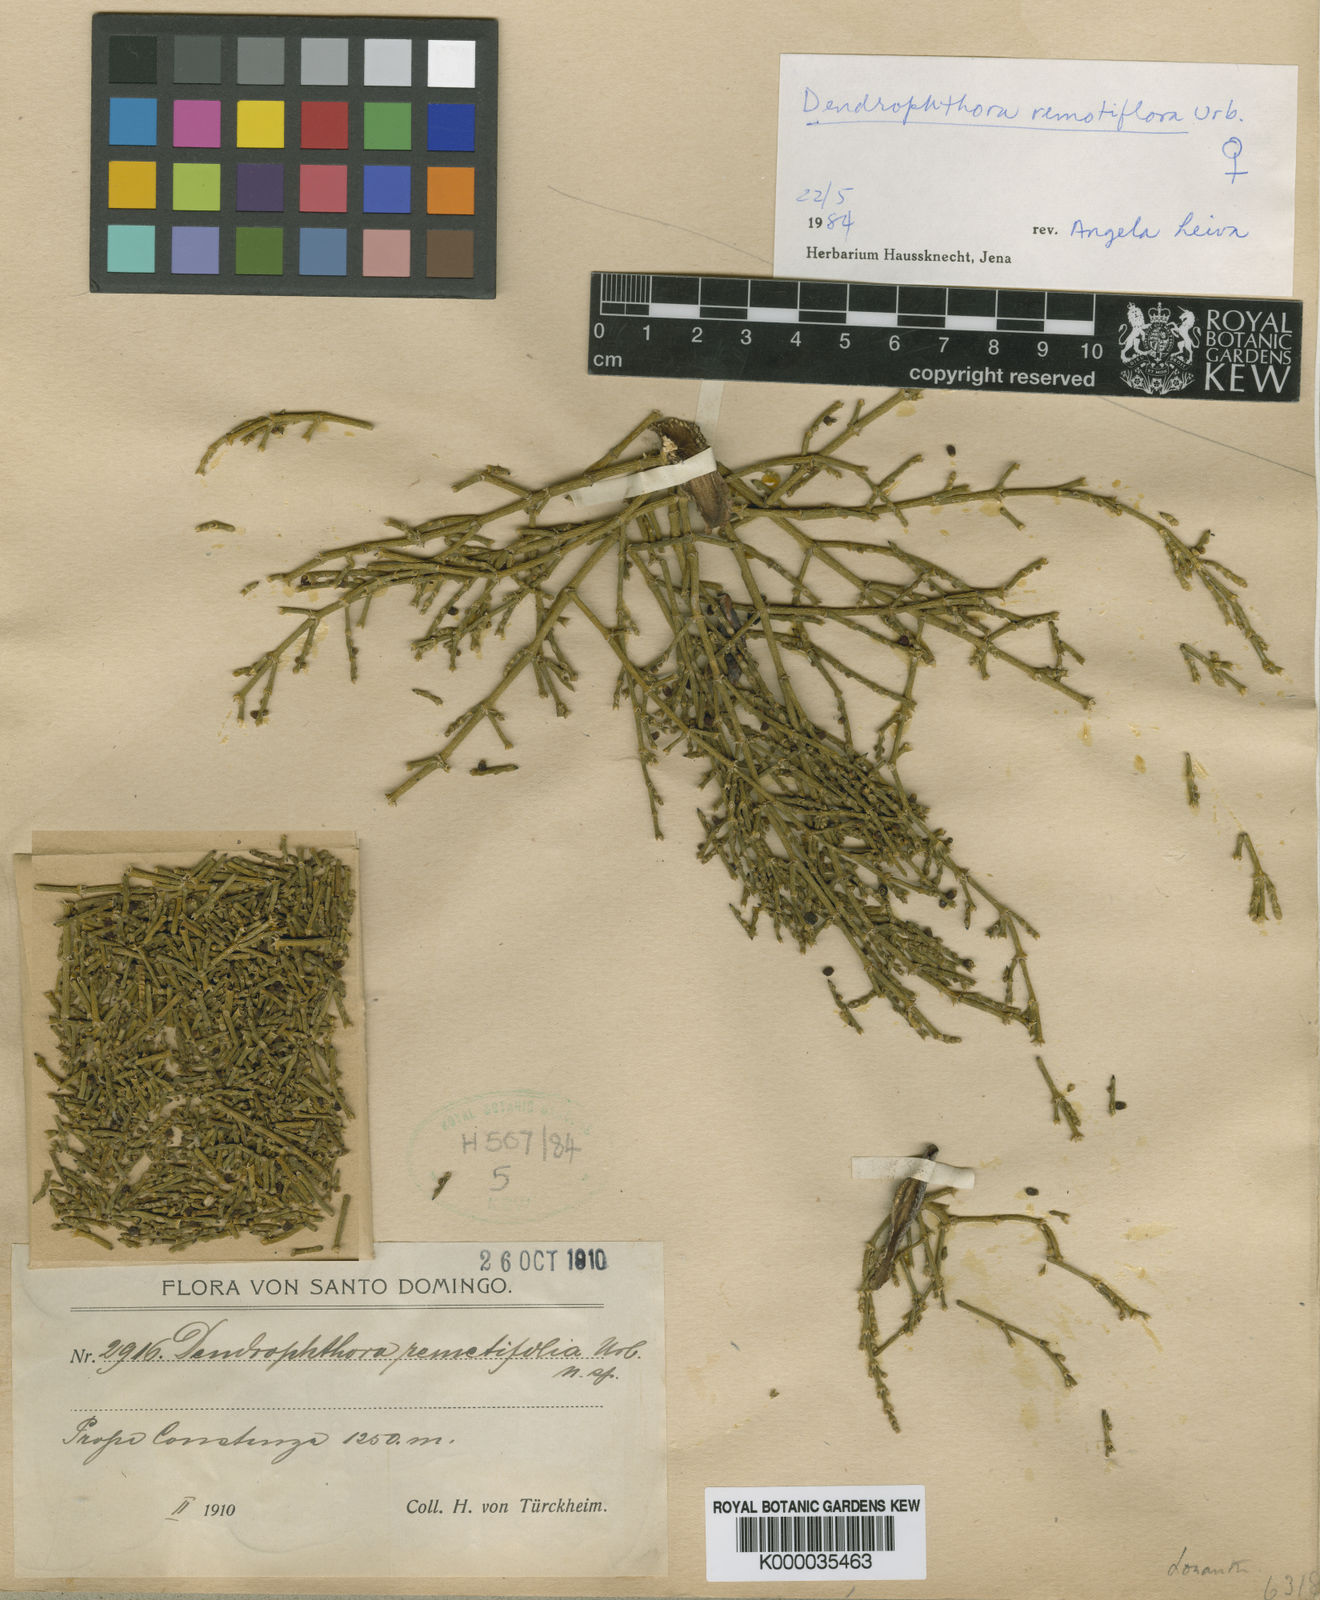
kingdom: Plantae
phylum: Tracheophyta
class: Magnoliopsida
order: Santalales
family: Viscaceae
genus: Dendrophthora
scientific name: Dendrophthora remotiflora
